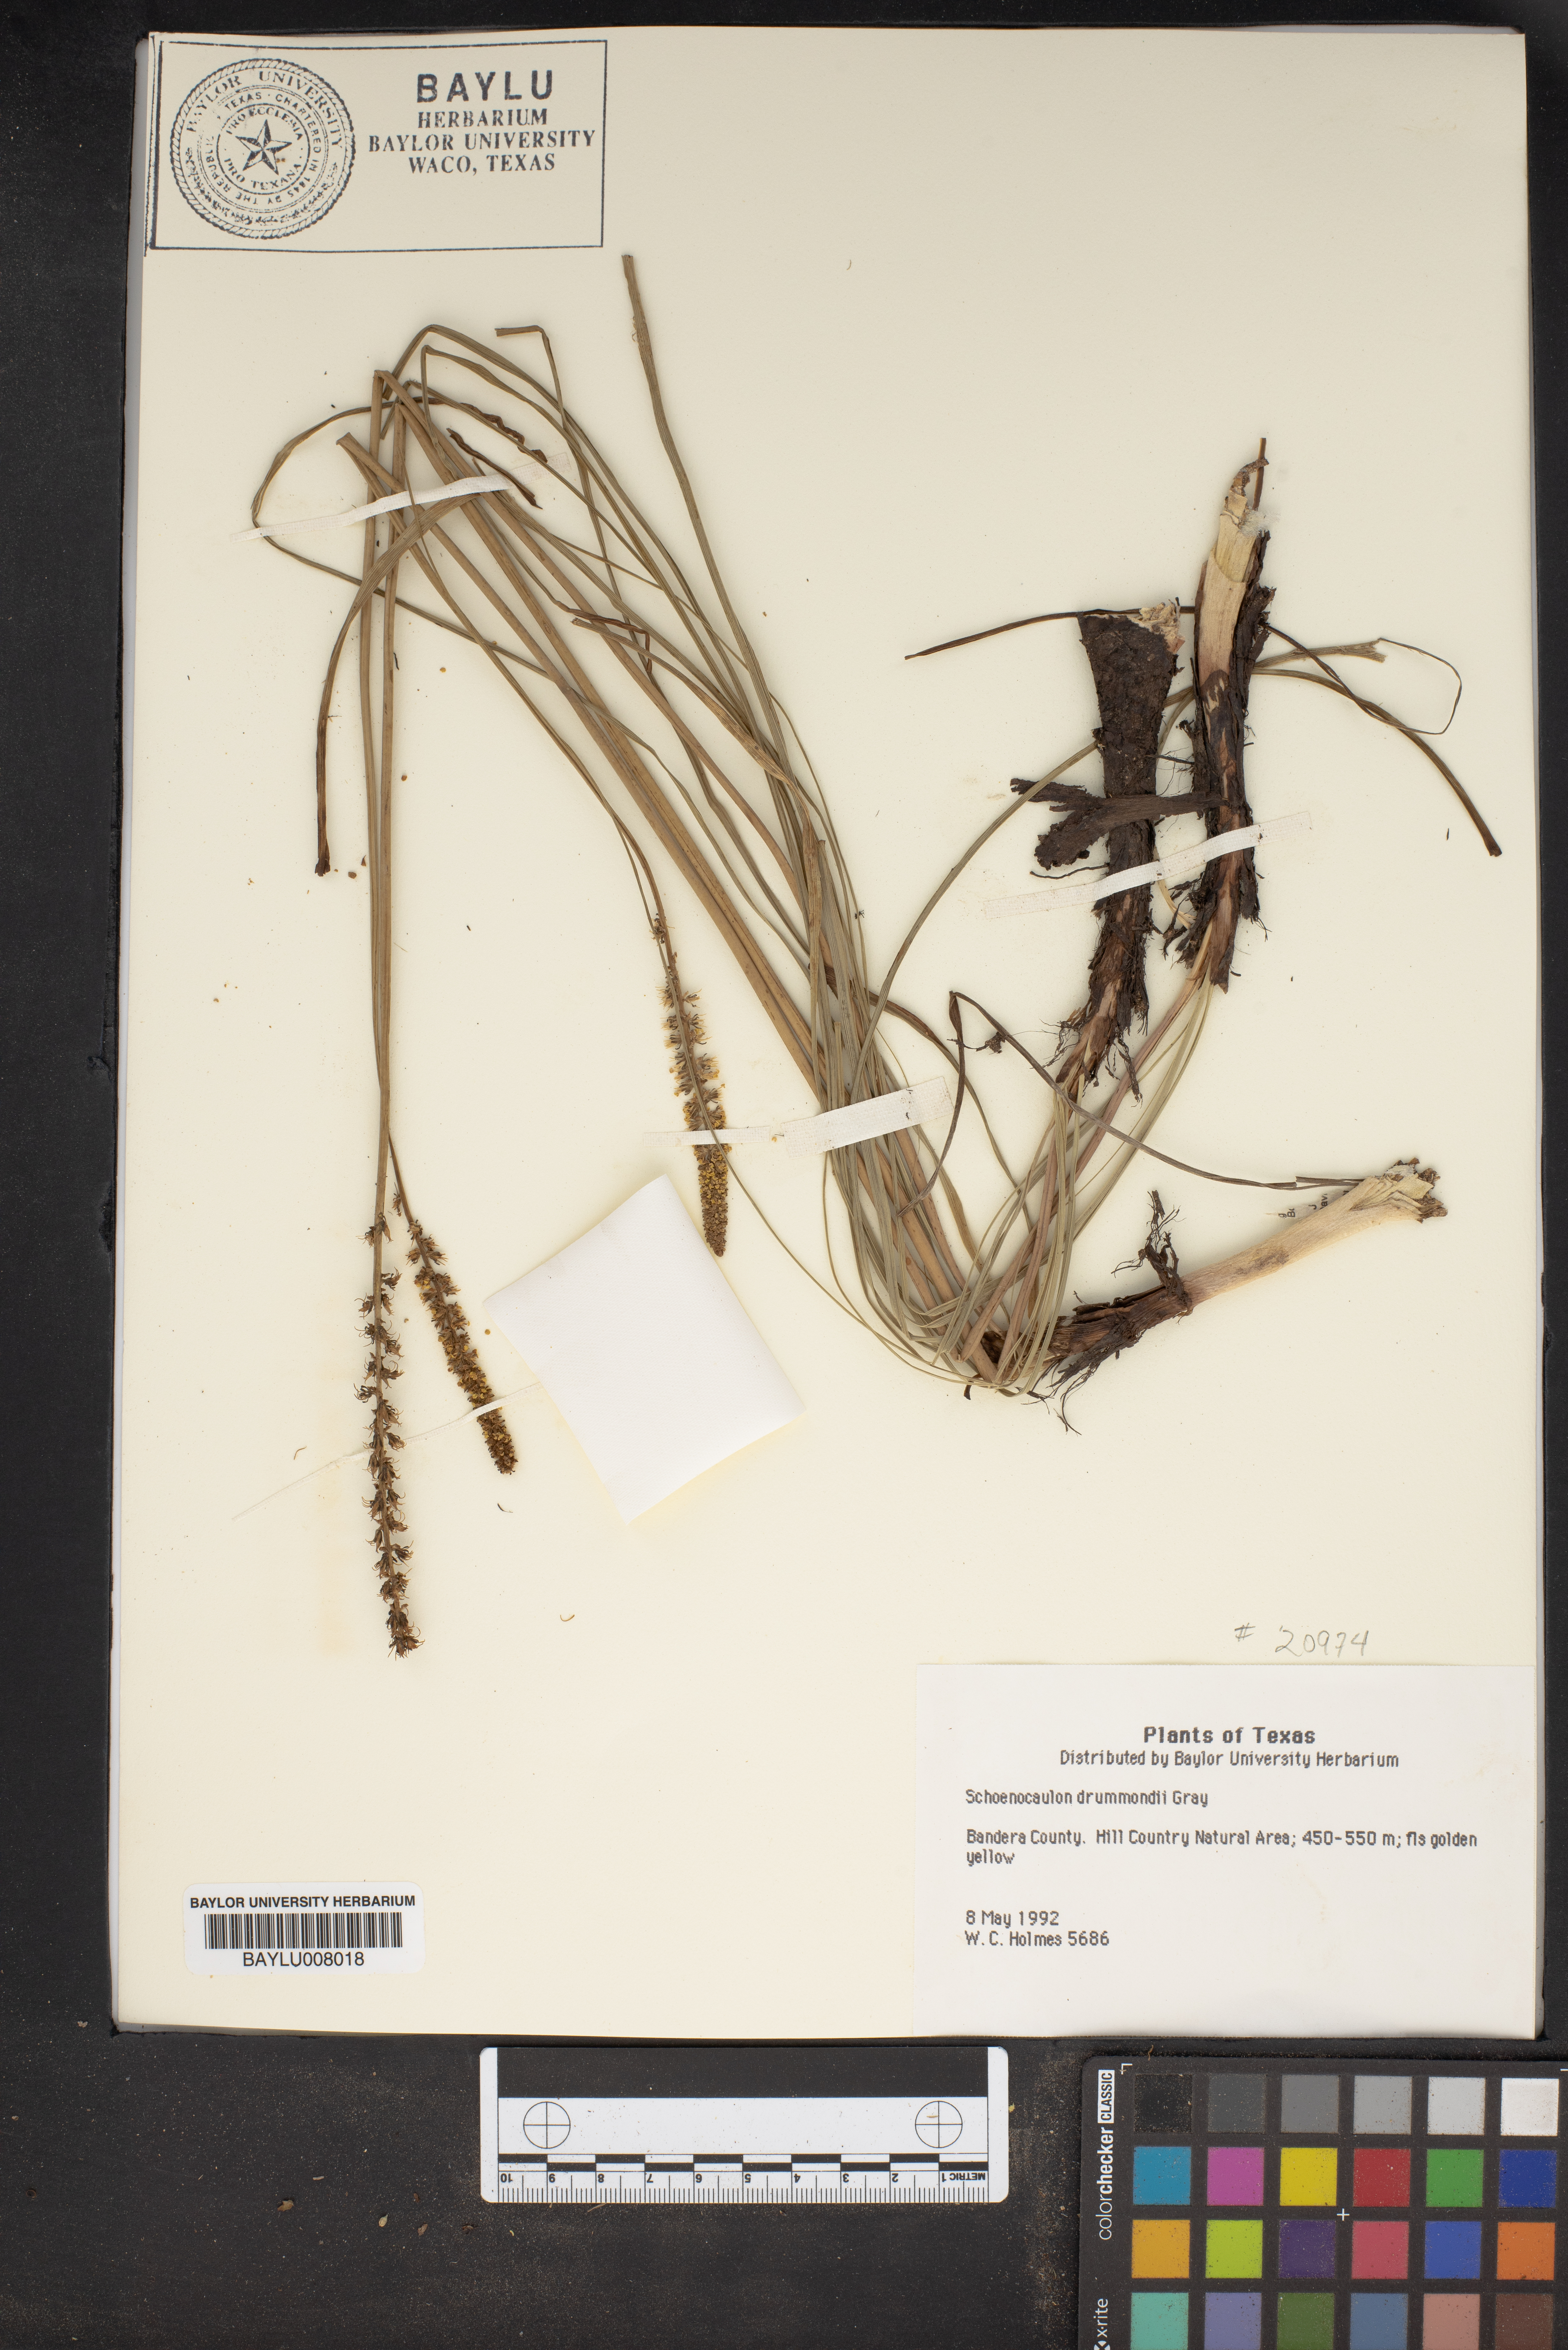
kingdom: Plantae
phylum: Tracheophyta
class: Liliopsida
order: Liliales
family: Melanthiaceae
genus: Schoenocaulon
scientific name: Schoenocaulon ghiesbreghtii
